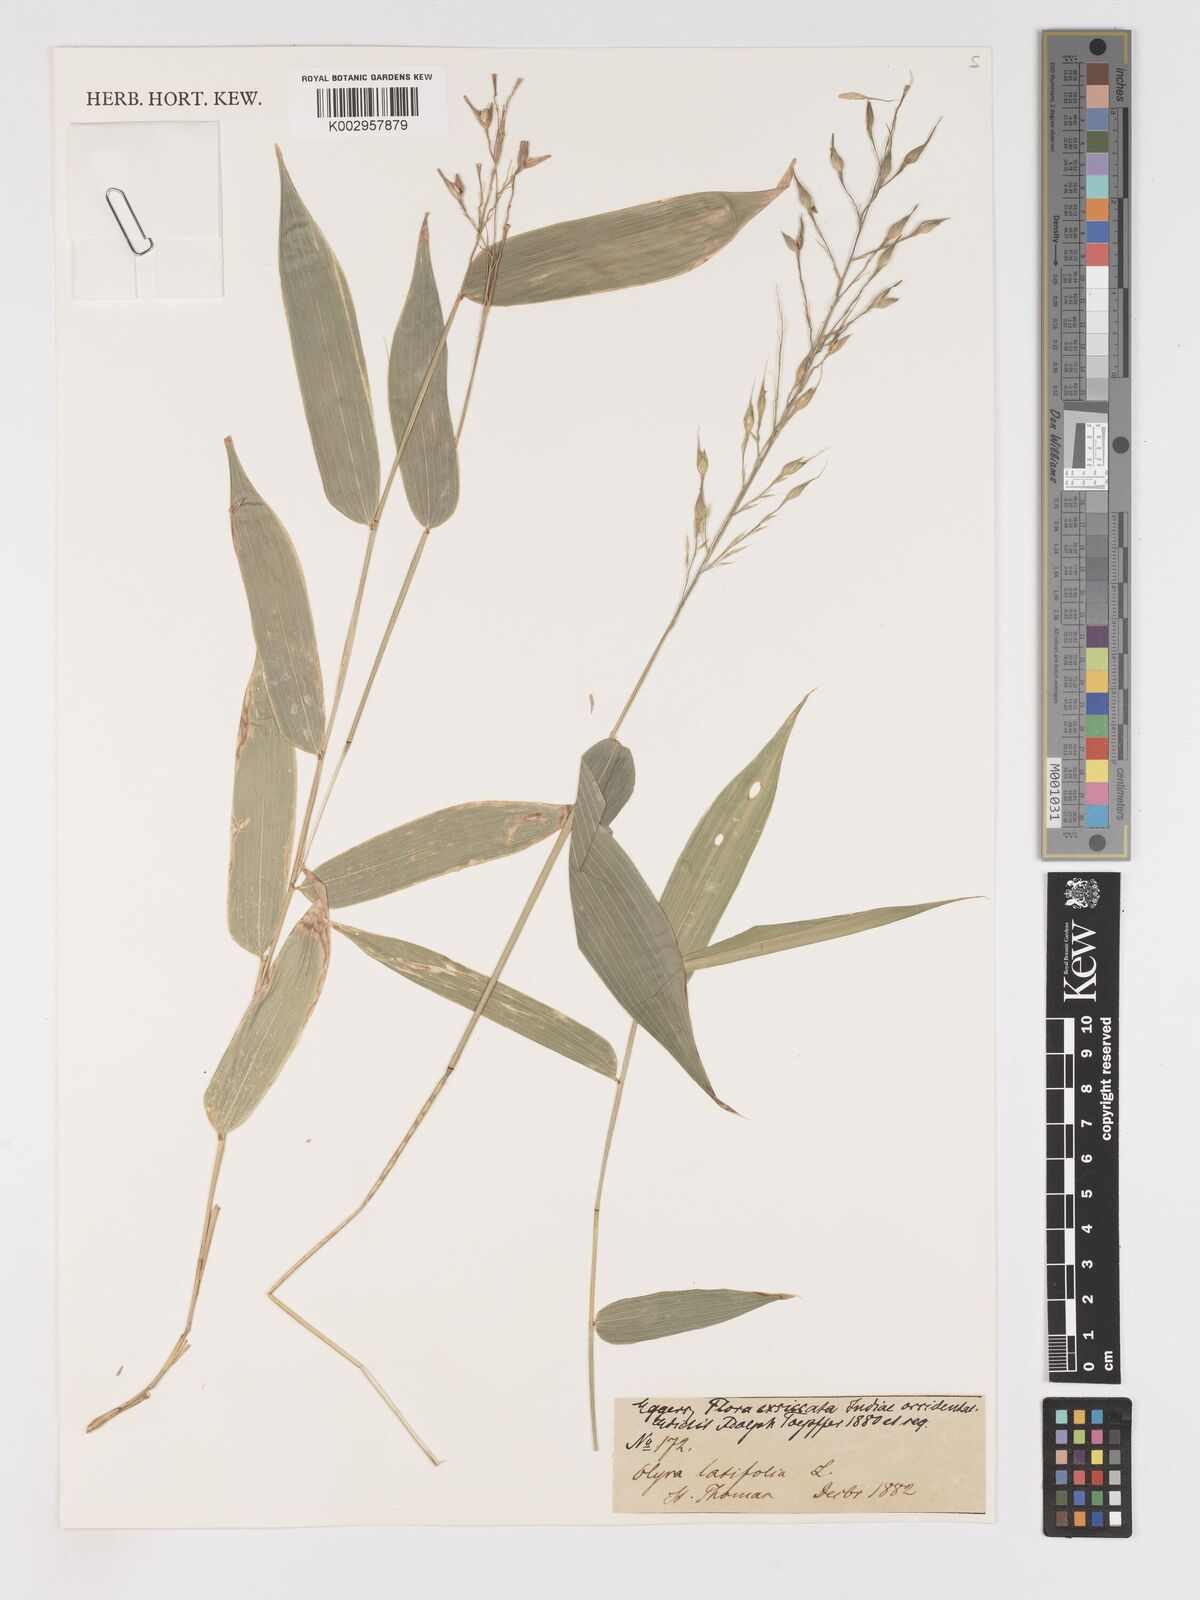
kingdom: Plantae
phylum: Tracheophyta
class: Liliopsida
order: Poales
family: Poaceae
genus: Olyra
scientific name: Olyra latifolia
